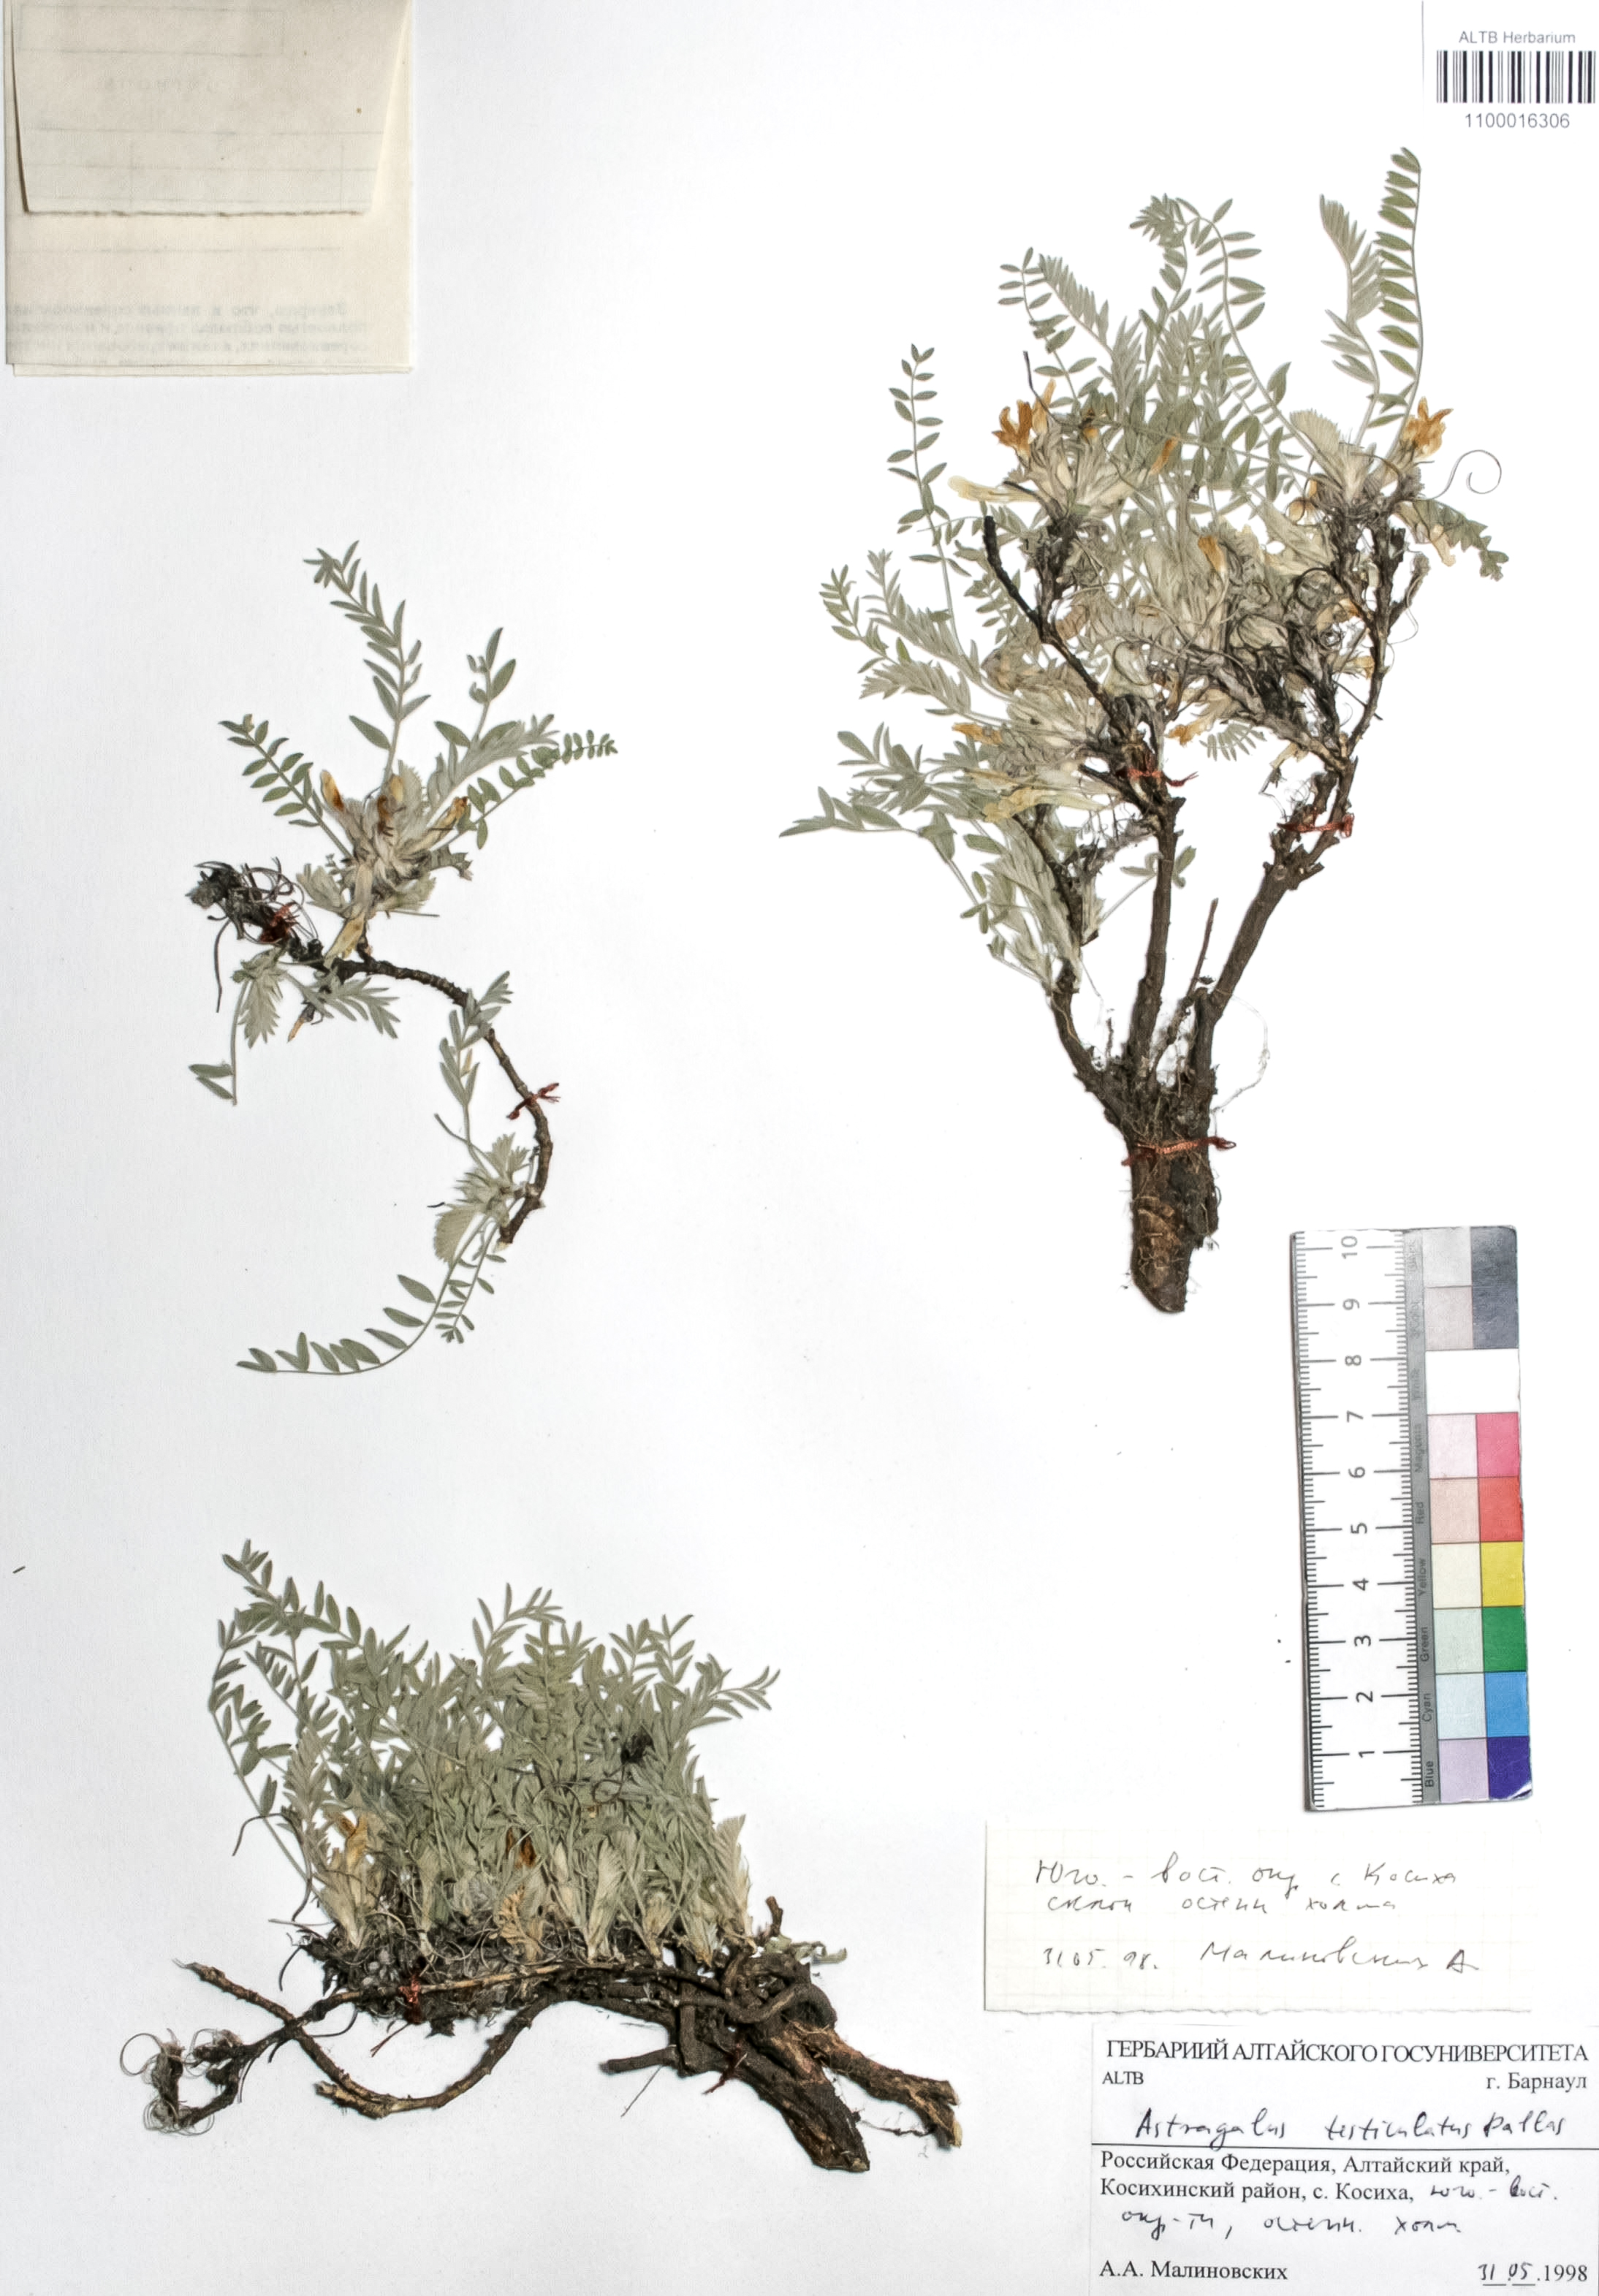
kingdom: Plantae
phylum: Tracheophyta
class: Magnoliopsida
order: Fabales
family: Fabaceae
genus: Astragalus
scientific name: Astragalus testiculatus
